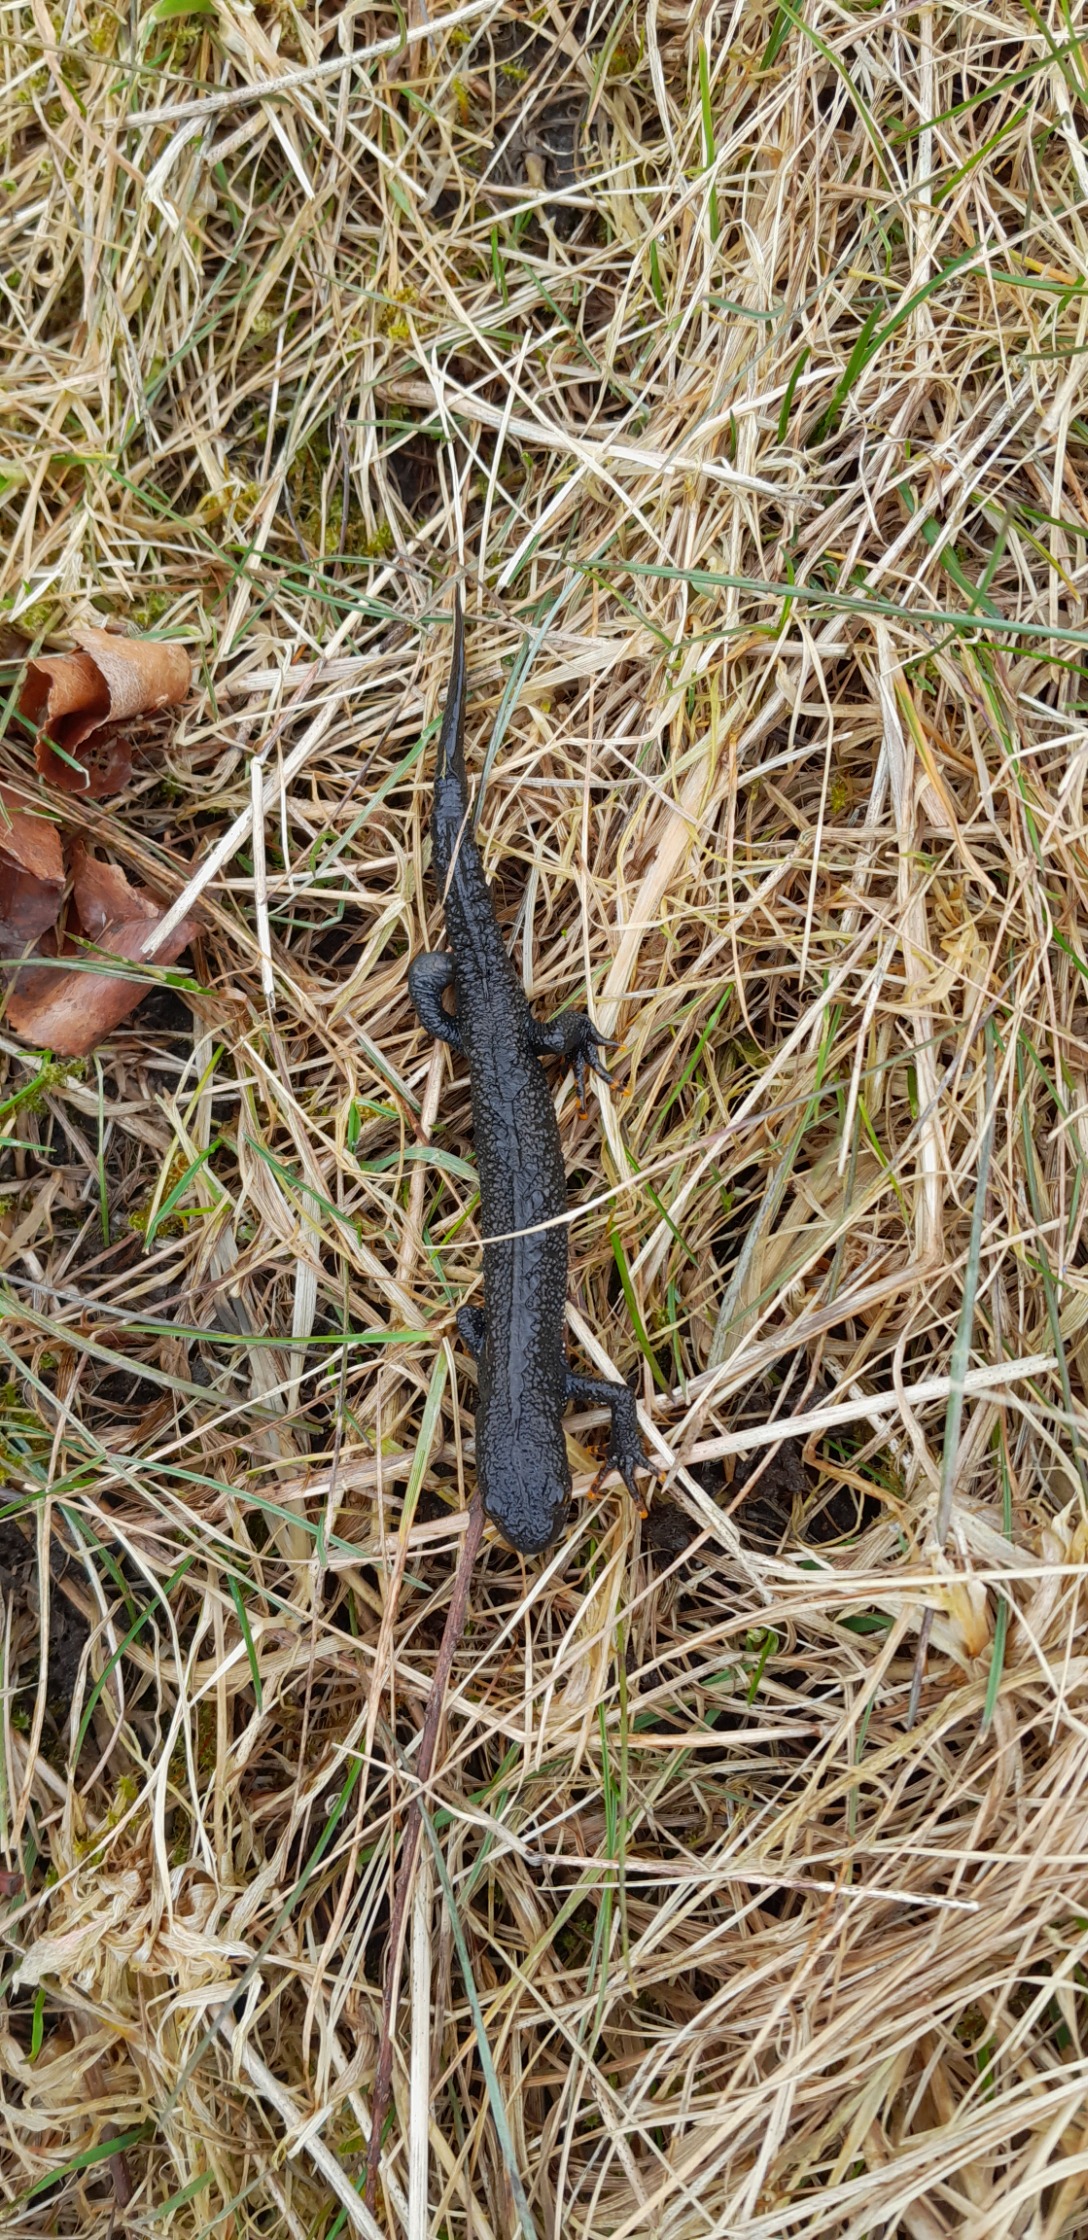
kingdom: Animalia
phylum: Chordata
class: Amphibia
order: Caudata
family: Salamandridae
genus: Triturus
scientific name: Triturus cristatus
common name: Stor vandsalamander
